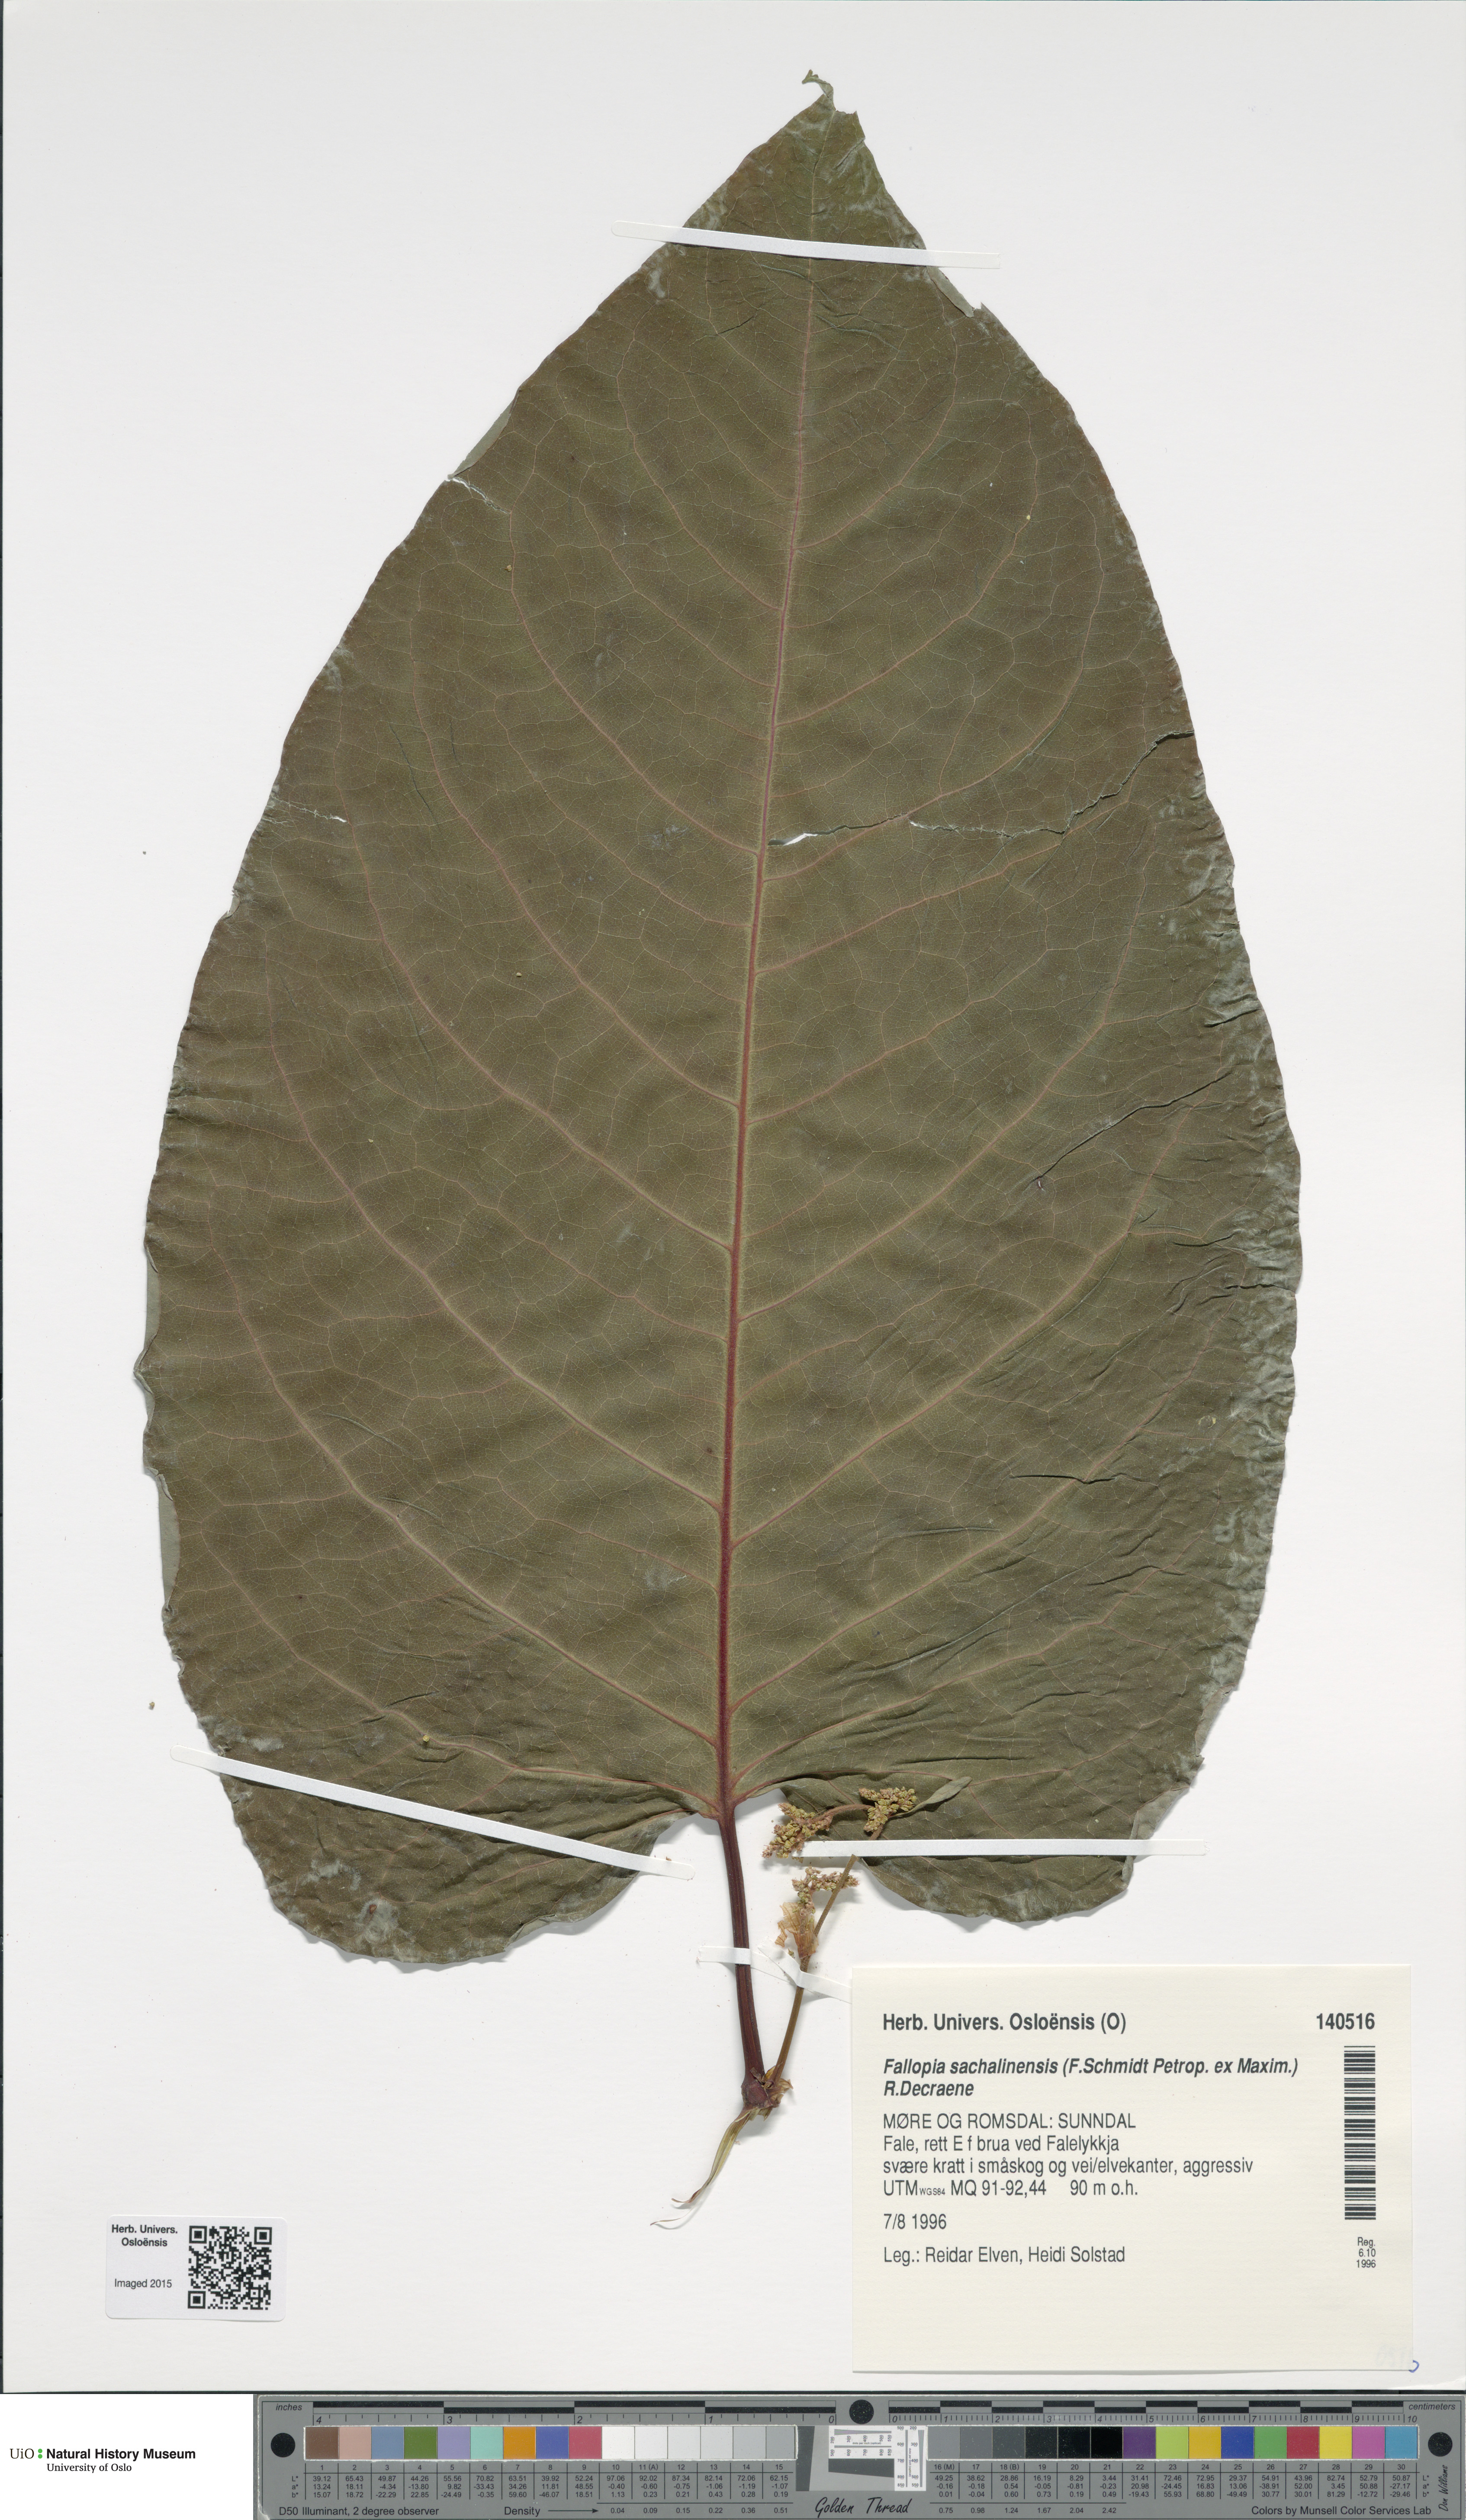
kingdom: Plantae
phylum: Tracheophyta
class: Magnoliopsida
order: Caryophyllales
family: Polygonaceae
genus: Reynoutria
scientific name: Reynoutria sachalinensis
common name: Giant knotweed
